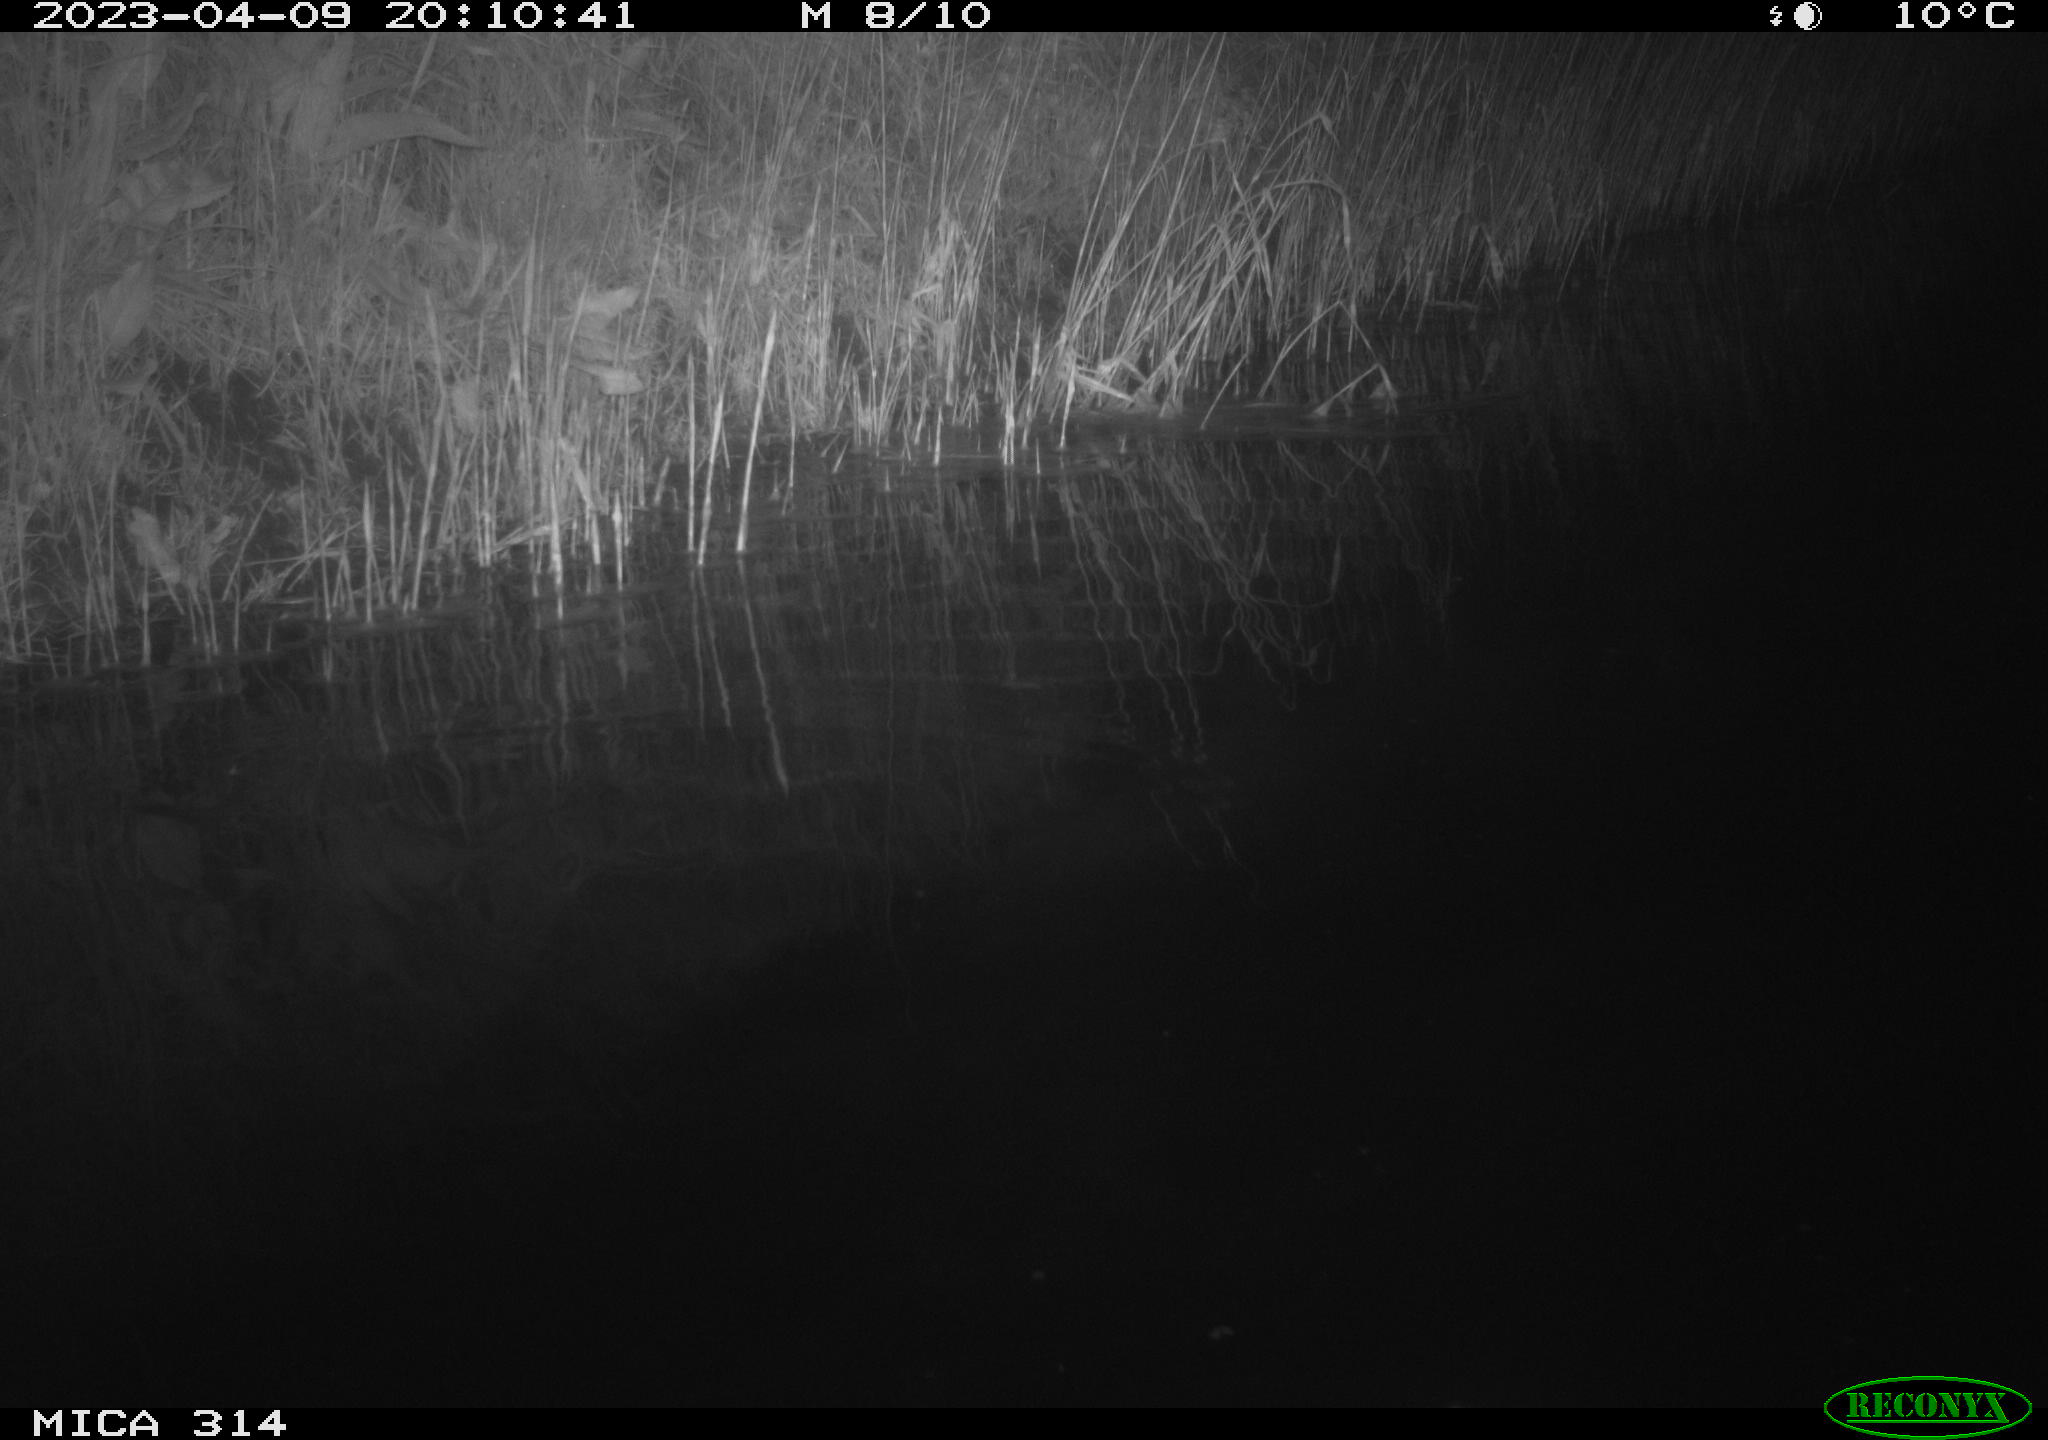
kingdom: Animalia
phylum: Chordata
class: Aves
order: Gruiformes
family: Rallidae
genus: Fulica
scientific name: Fulica atra
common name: Eurasian coot
